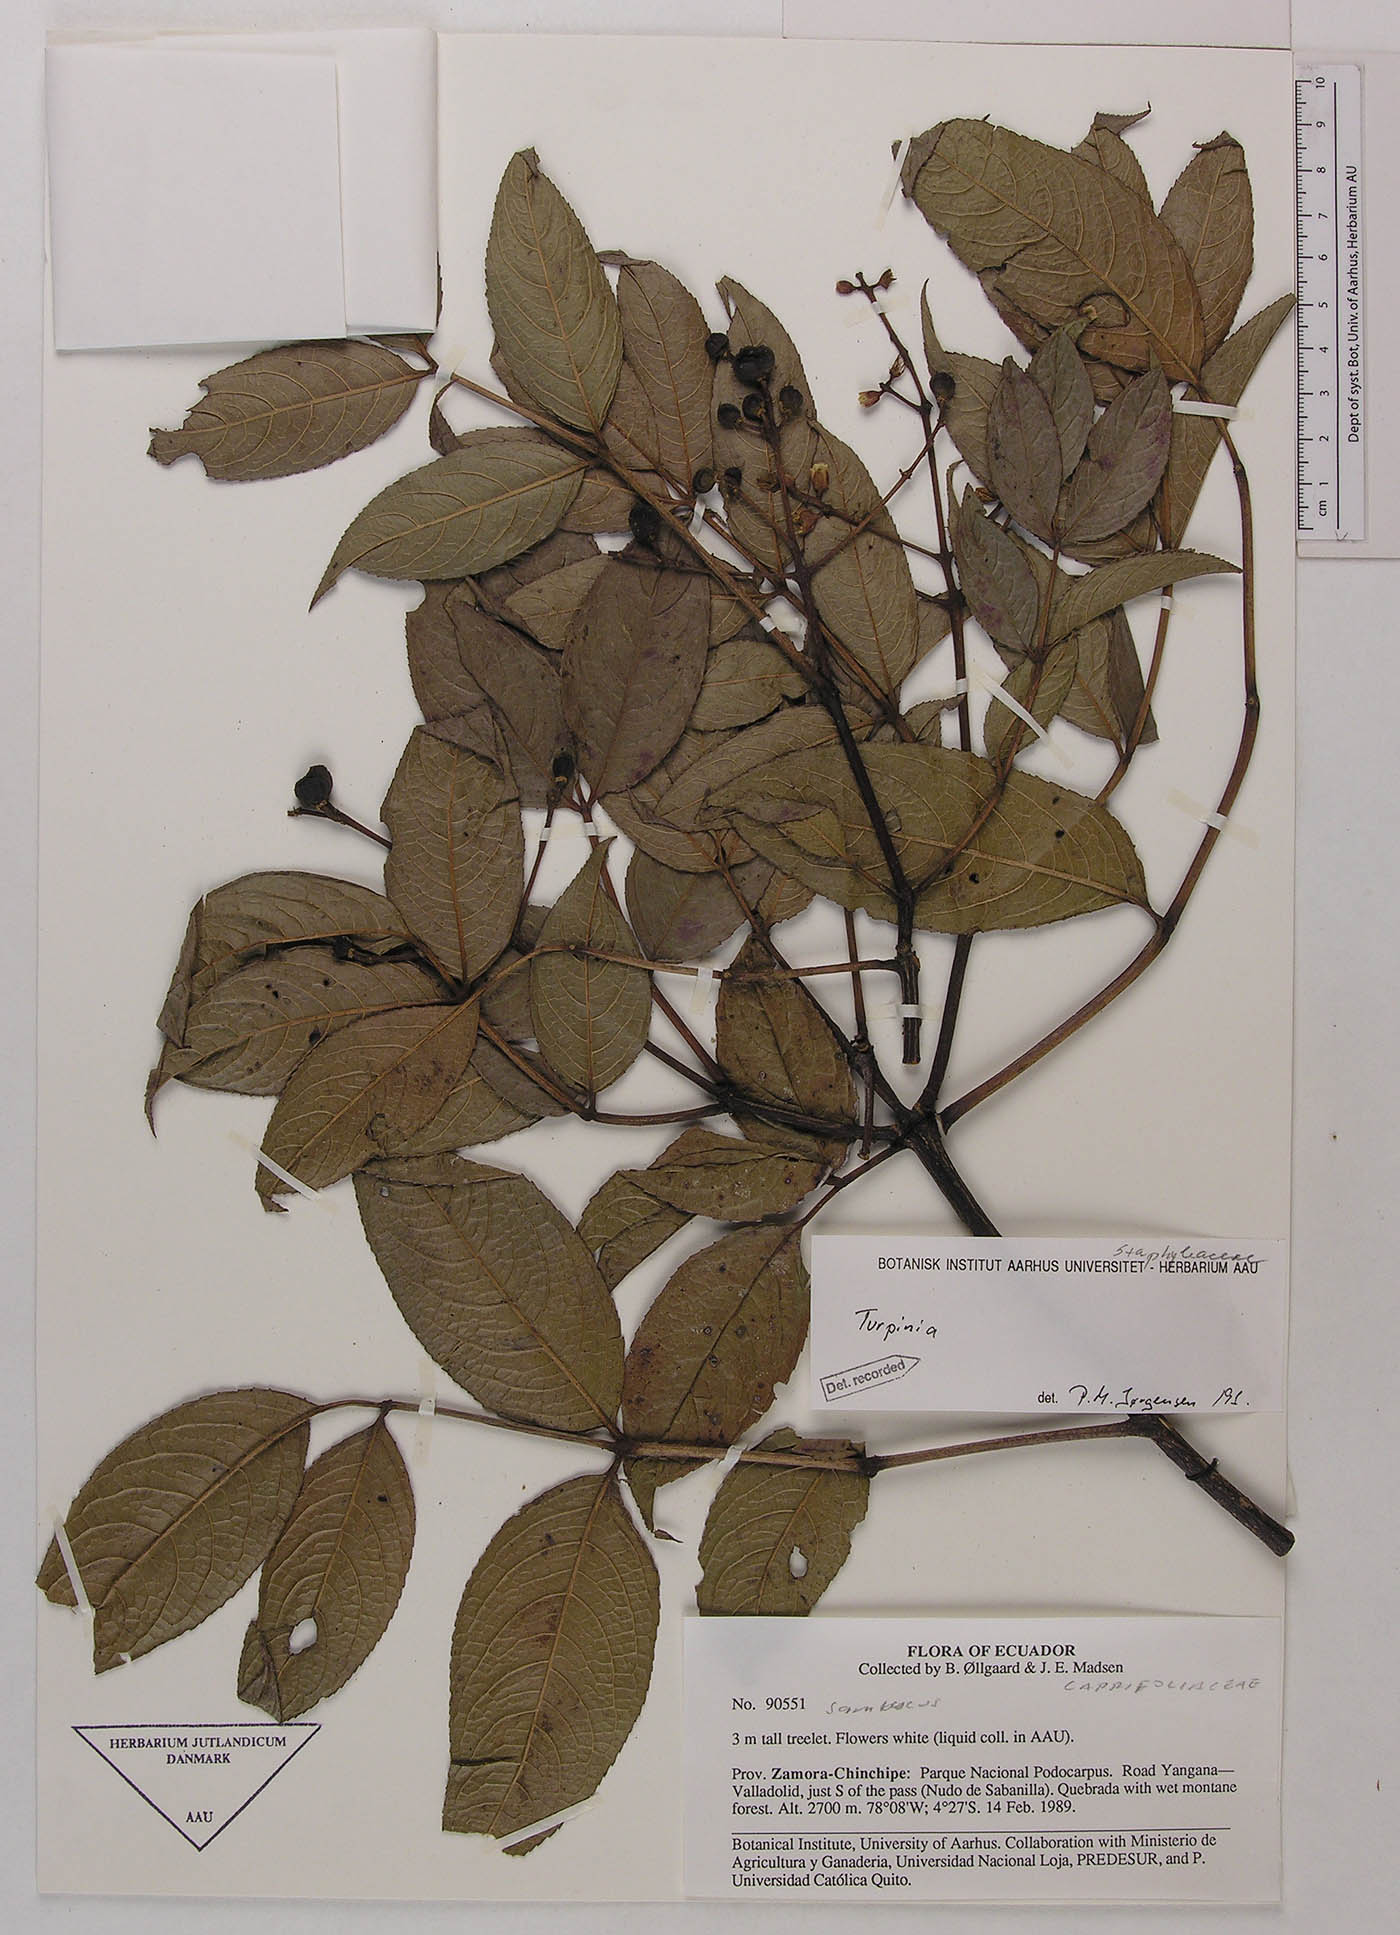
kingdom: Plantae
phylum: Tracheophyta
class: Magnoliopsida
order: Crossosomatales
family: Staphyleaceae
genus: Turpinia
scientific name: Turpinia megaphylla
